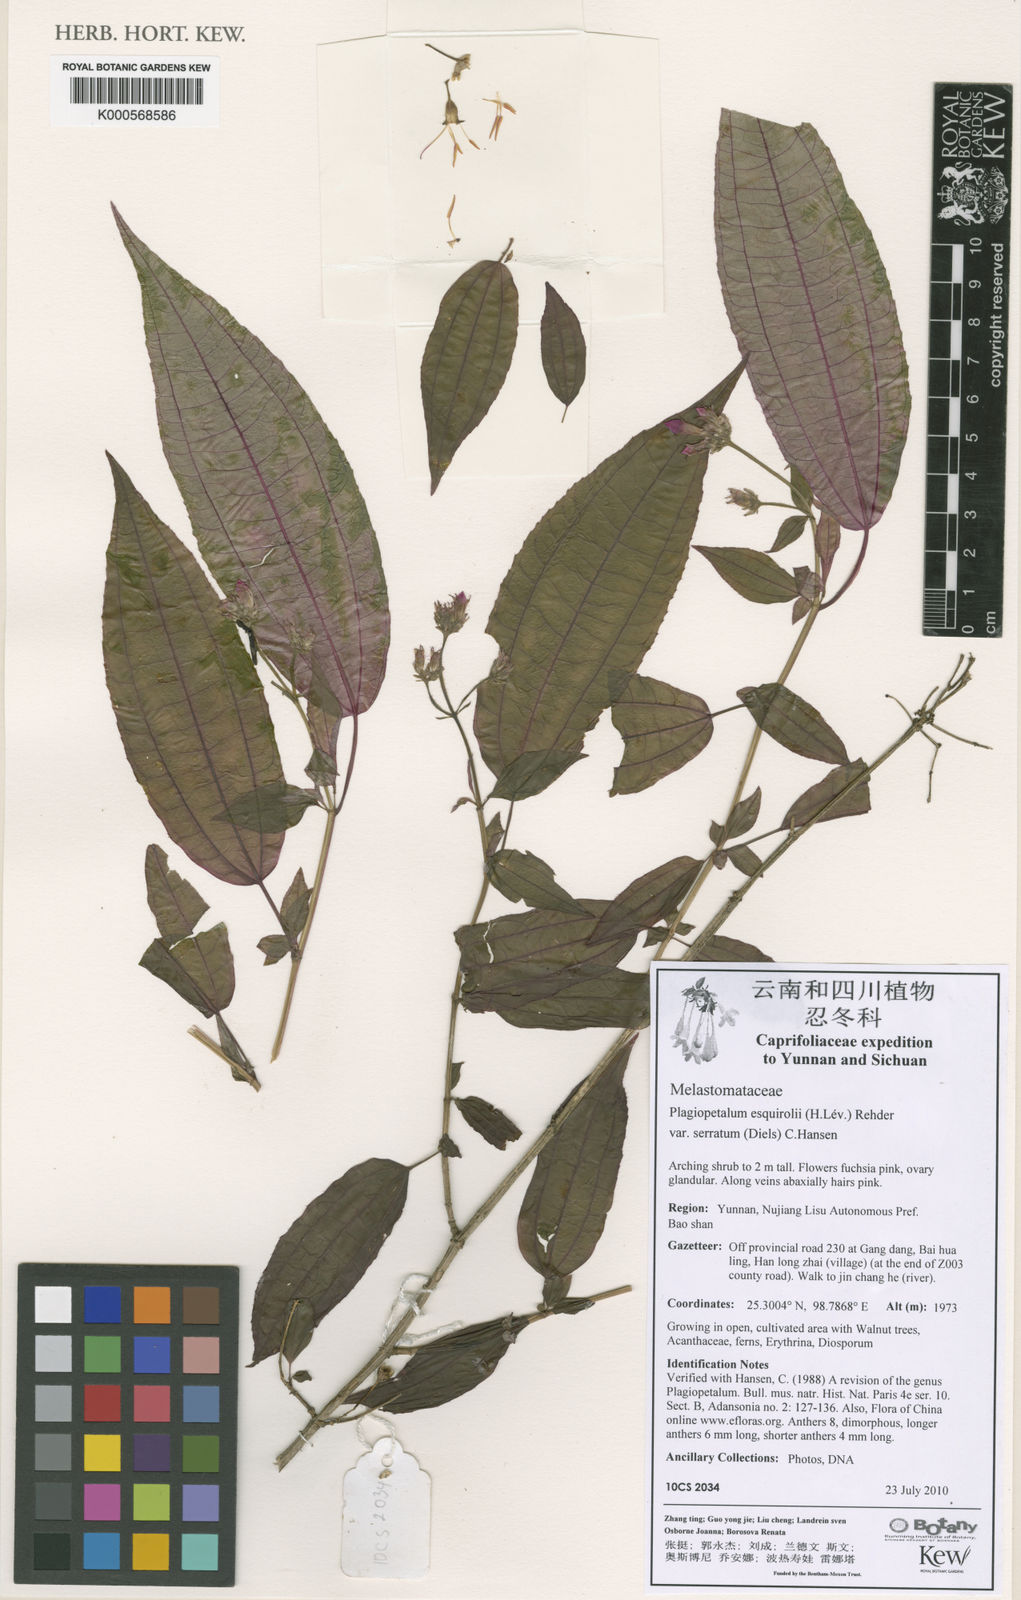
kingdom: Plantae
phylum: Tracheophyta
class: Magnoliopsida
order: Myrtales
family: Melastomataceae
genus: Plagiopetalum
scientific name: Plagiopetalum esquirolii
